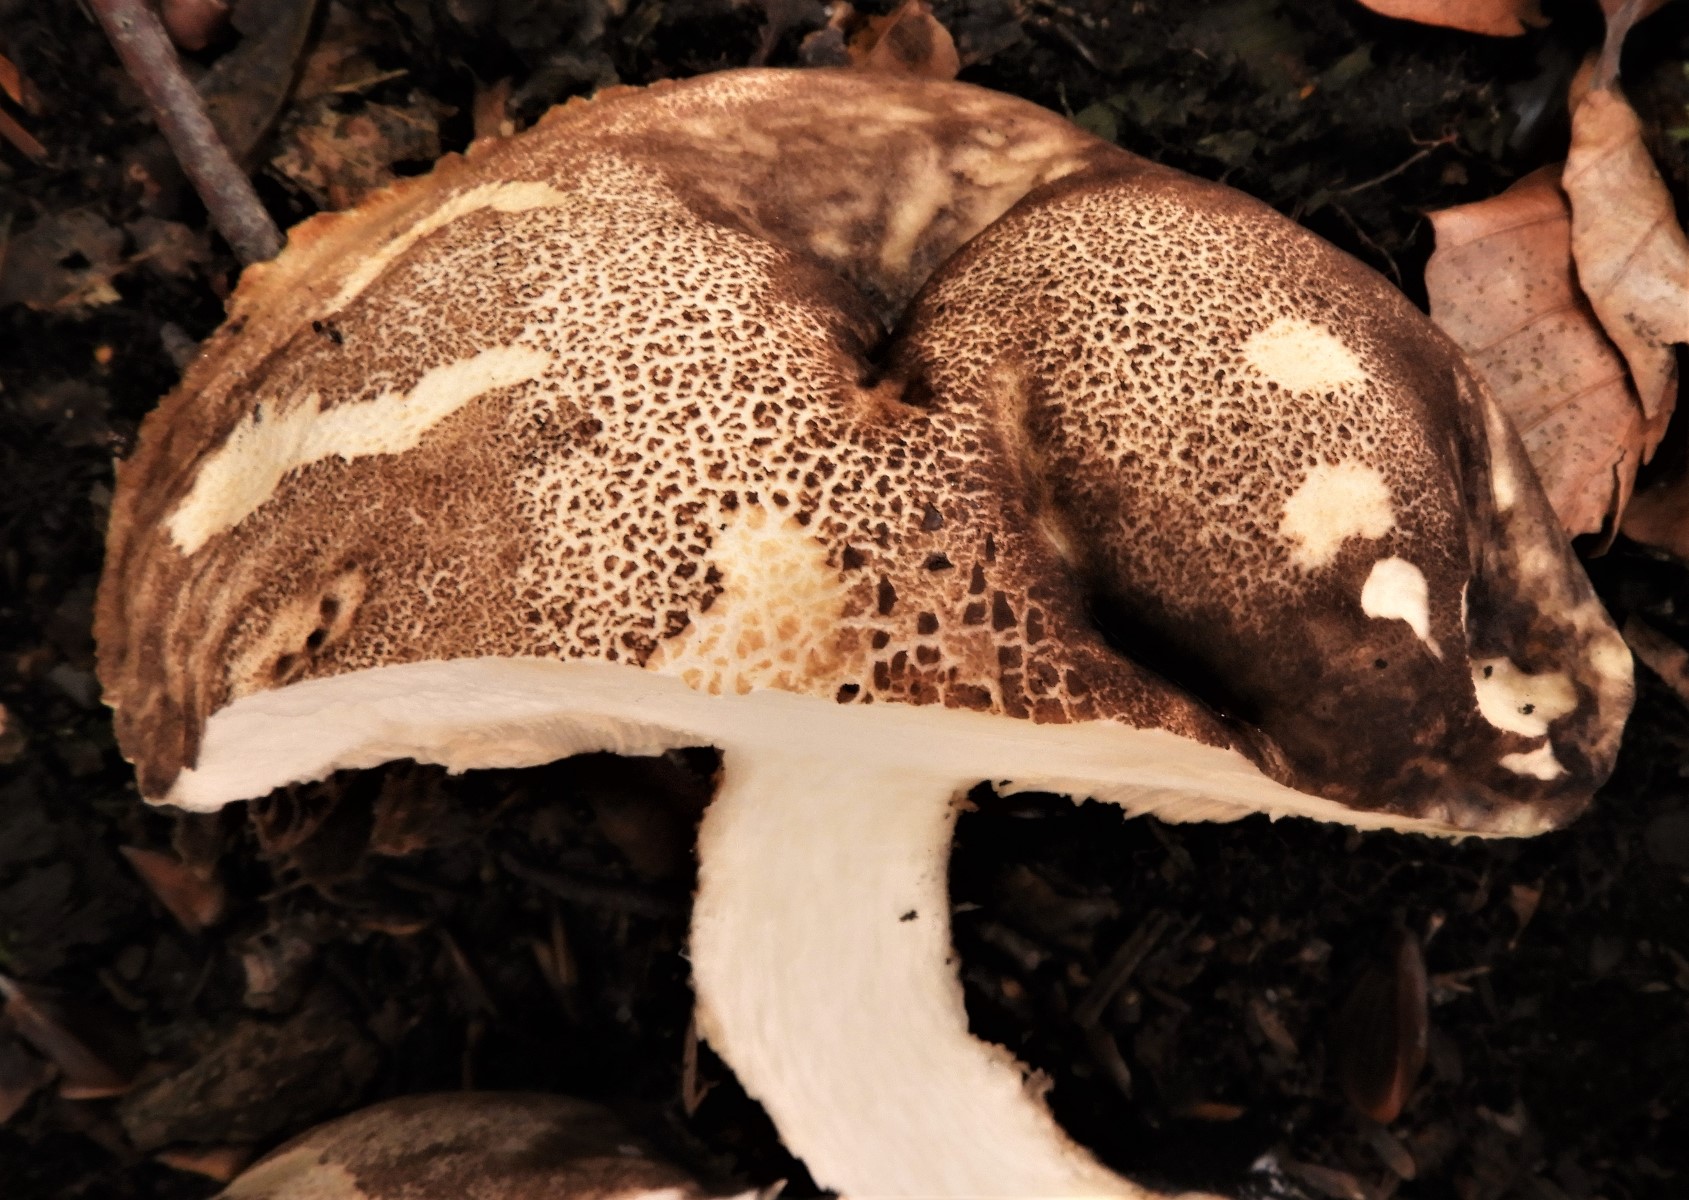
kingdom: Fungi
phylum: Basidiomycota
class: Agaricomycetes
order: Boletales
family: Boletaceae
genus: Leccinum
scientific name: Leccinum
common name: skælrørhat
